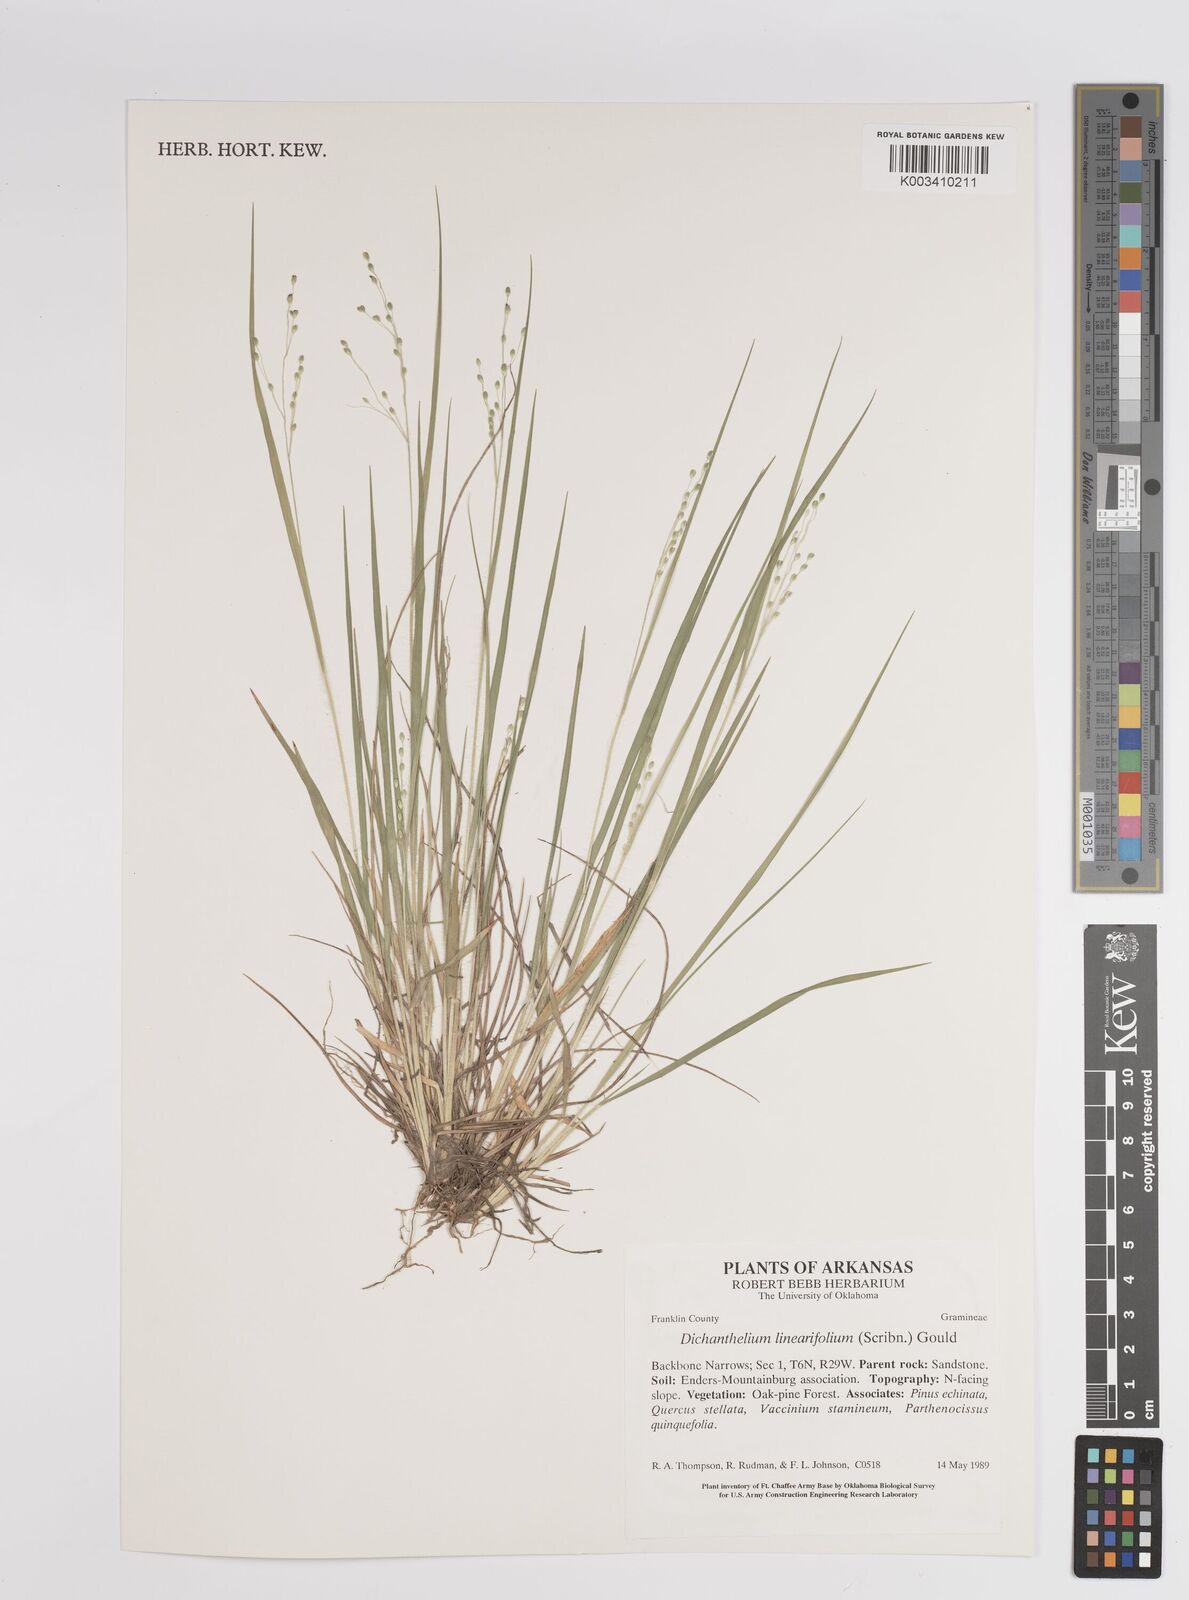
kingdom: Plantae
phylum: Tracheophyta
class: Liliopsida
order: Poales
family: Poaceae
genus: Dichanthelium
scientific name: Dichanthelium linearifolium
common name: Linear-leaved panicgrass
